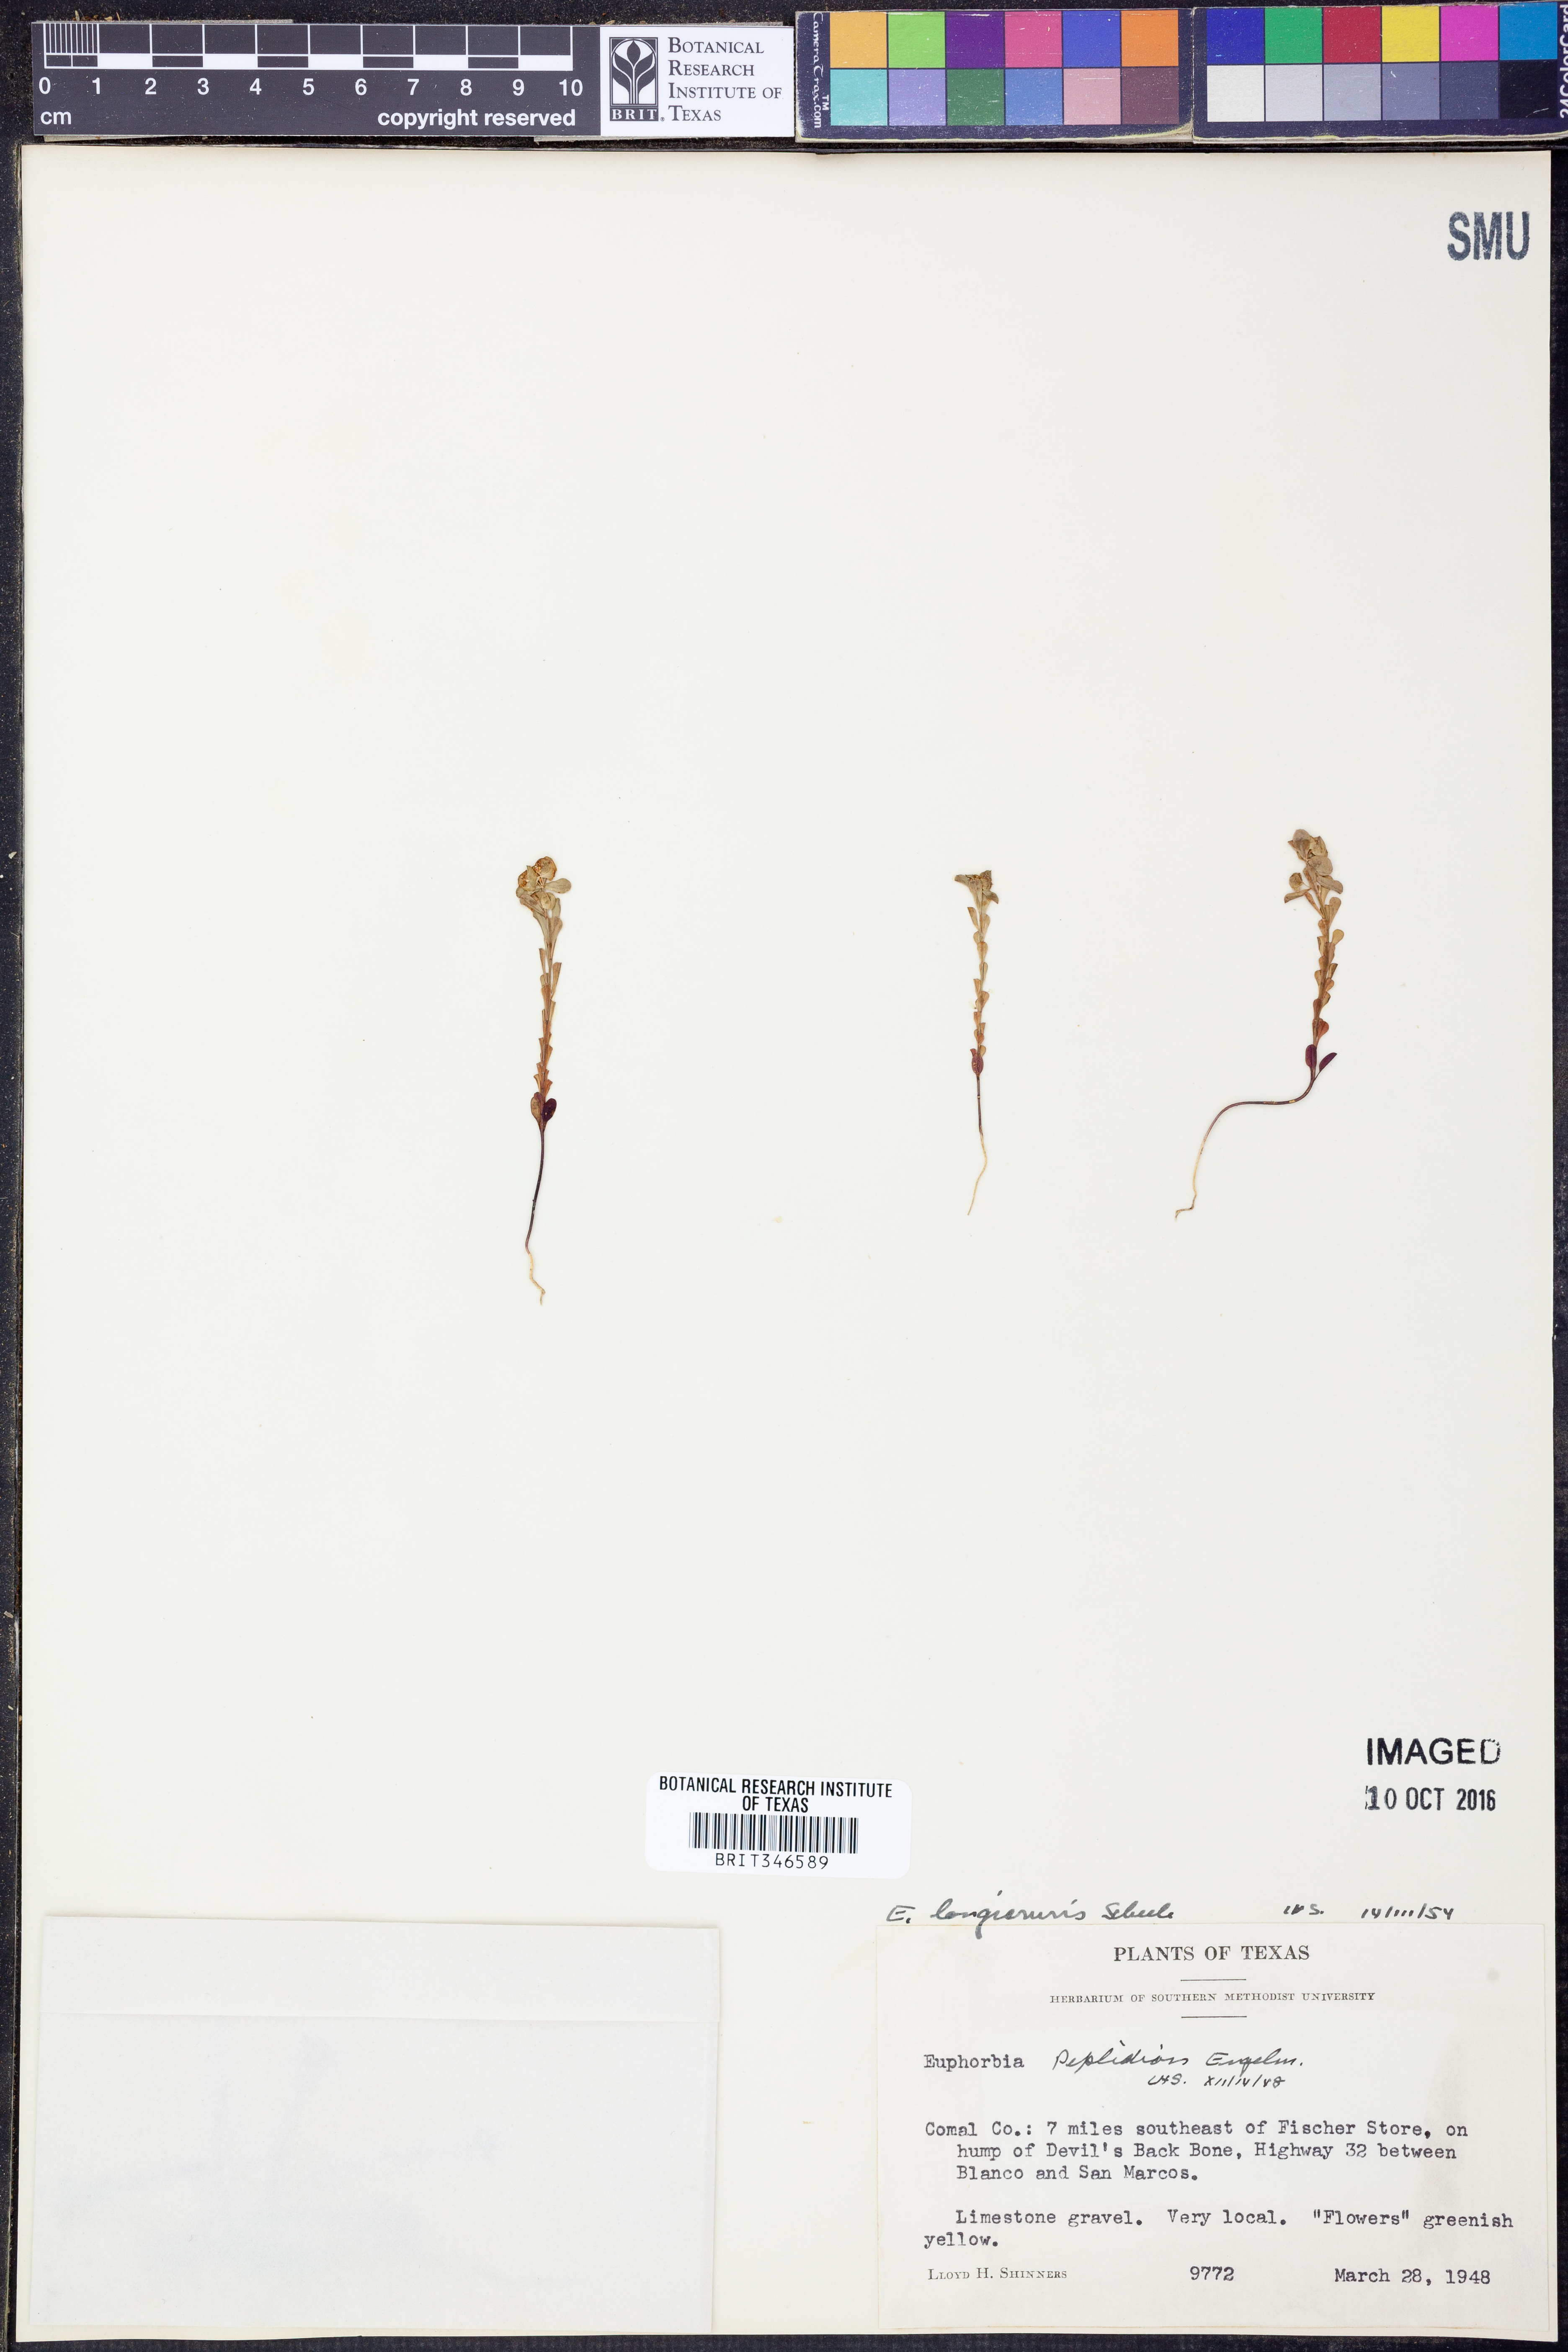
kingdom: Plantae
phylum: Tracheophyta
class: Magnoliopsida
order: Malpighiales
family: Euphorbiaceae
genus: Euphorbia
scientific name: Euphorbia longicruris
